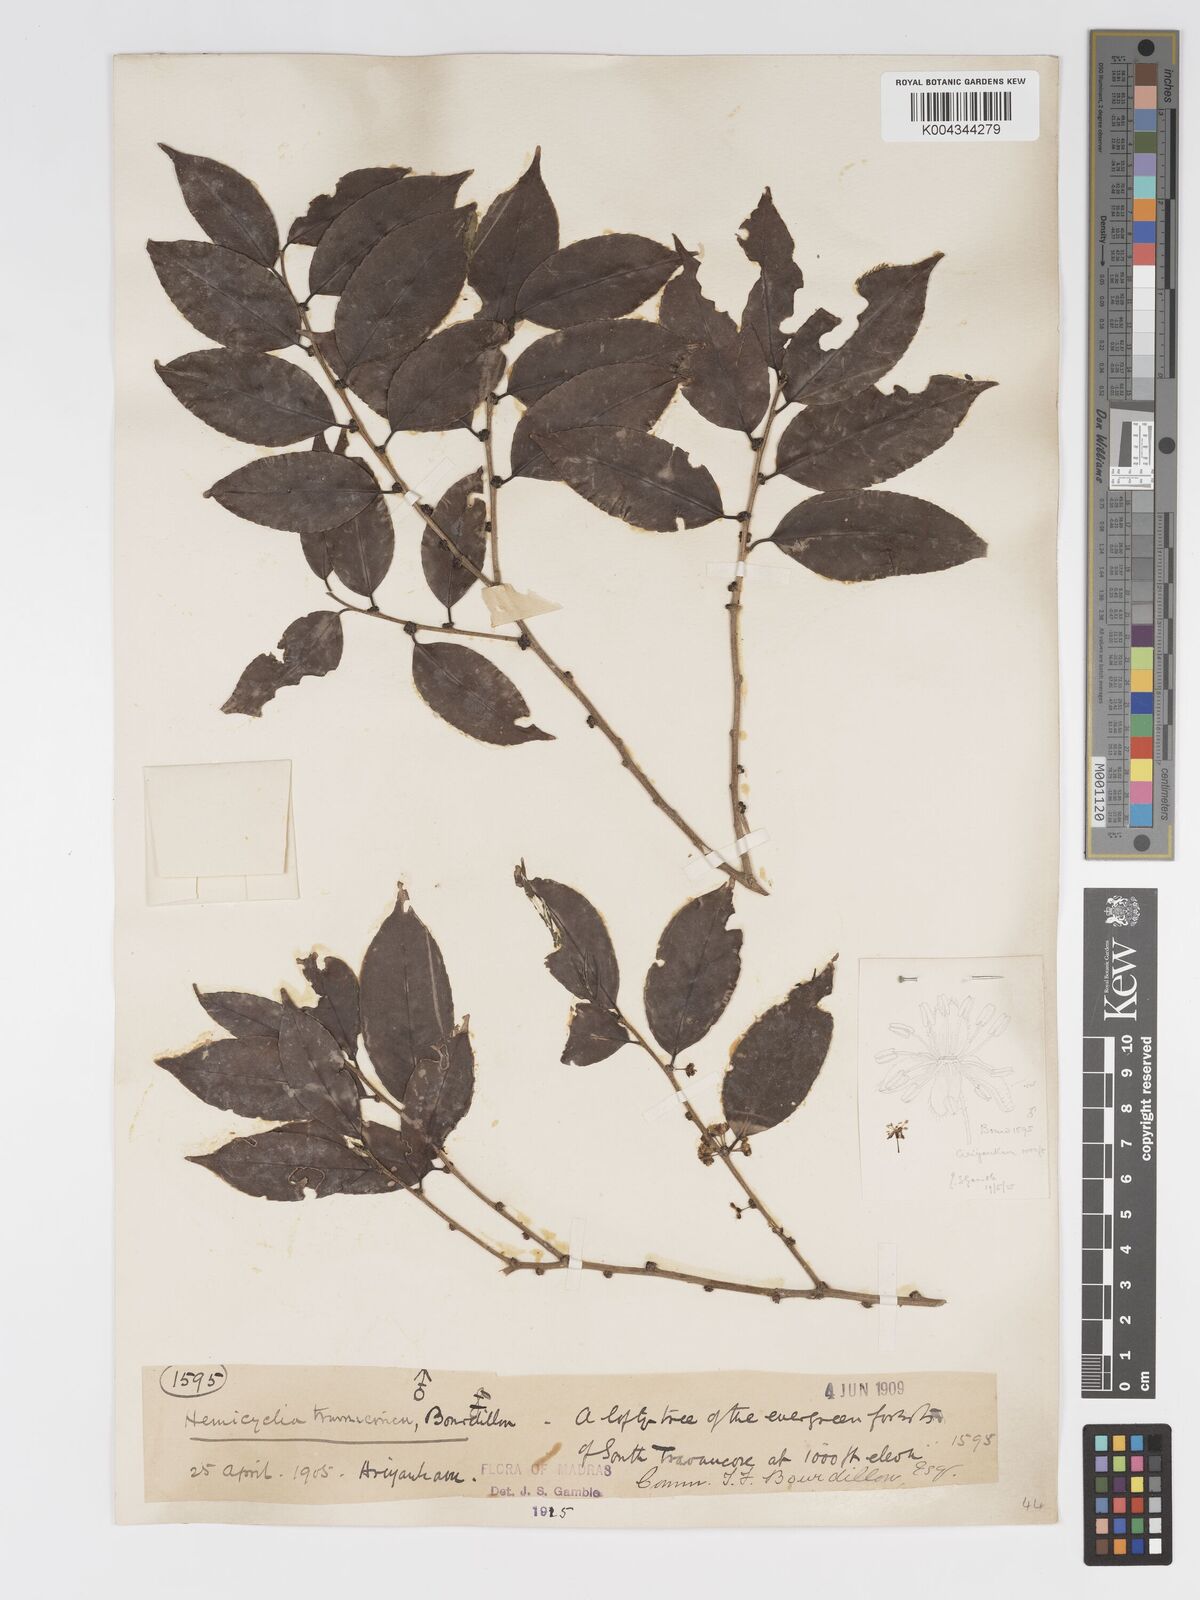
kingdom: Plantae
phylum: Tracheophyta
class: Magnoliopsida
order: Malpighiales
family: Putranjivaceae
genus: Drypetes
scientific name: Drypetes gardneri
